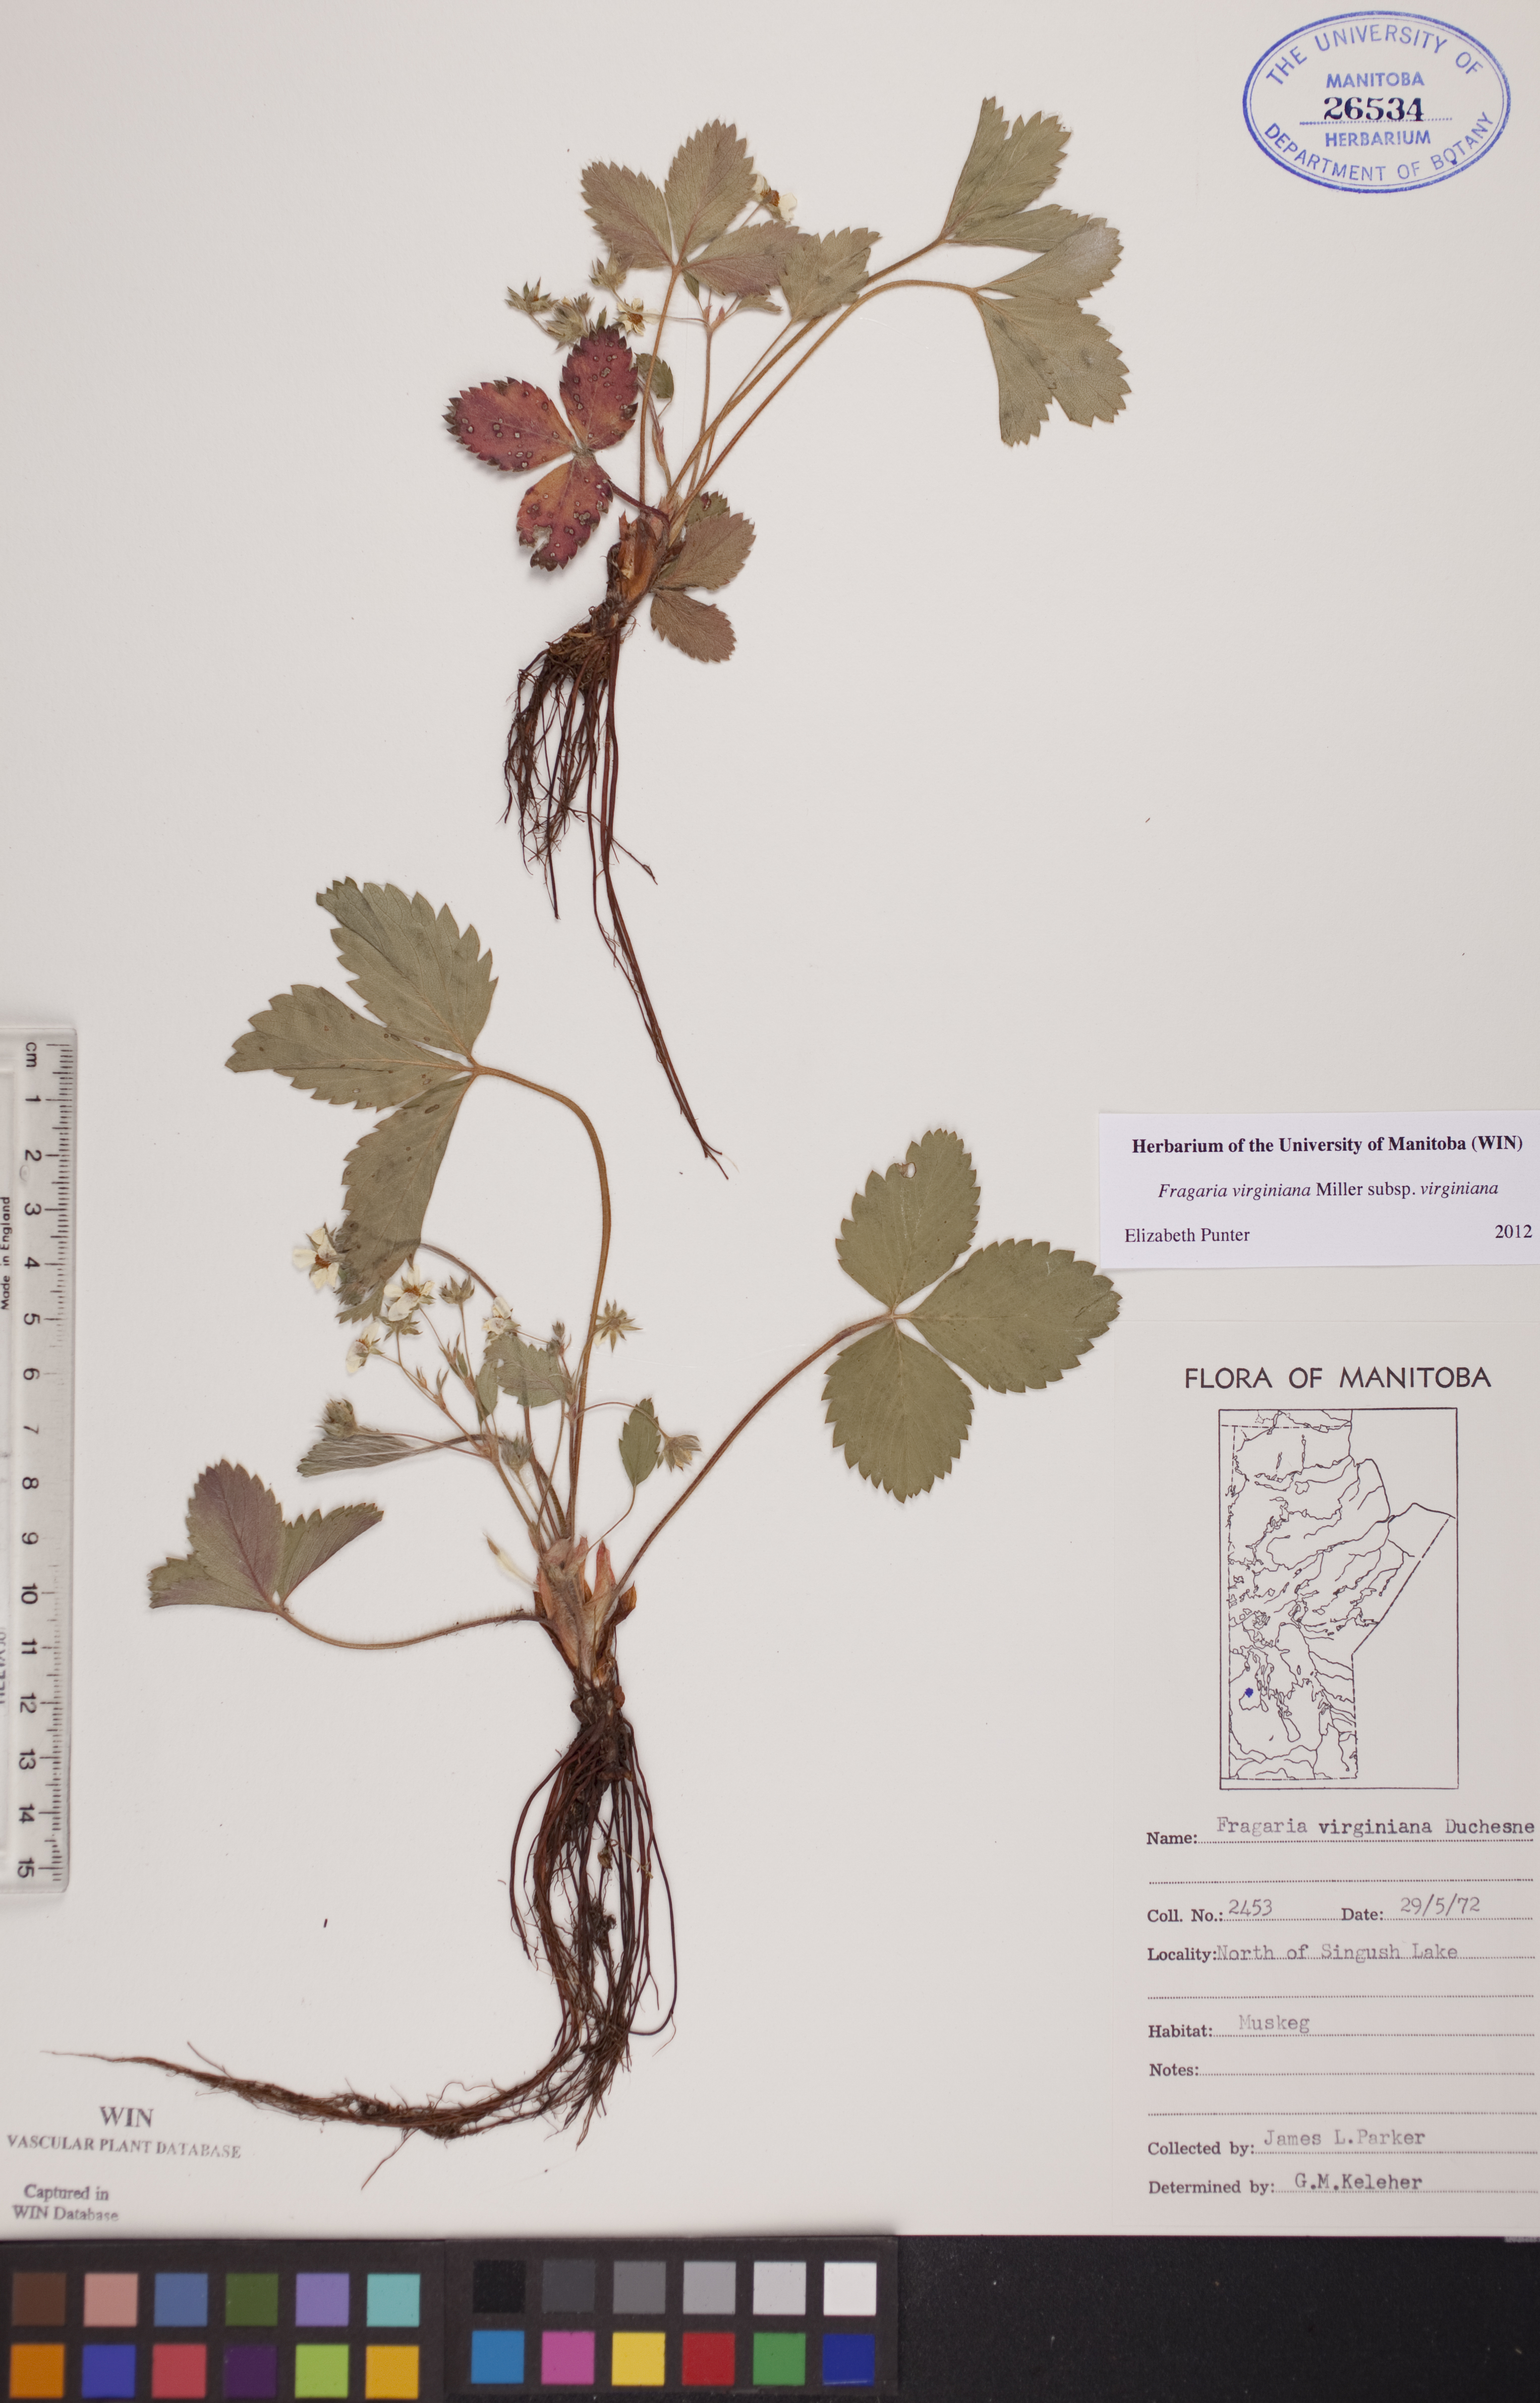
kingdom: Plantae
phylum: Tracheophyta
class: Magnoliopsida
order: Rosales
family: Rosaceae
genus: Fragaria
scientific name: Fragaria virginiana
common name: Thickleaved wild strawberry
